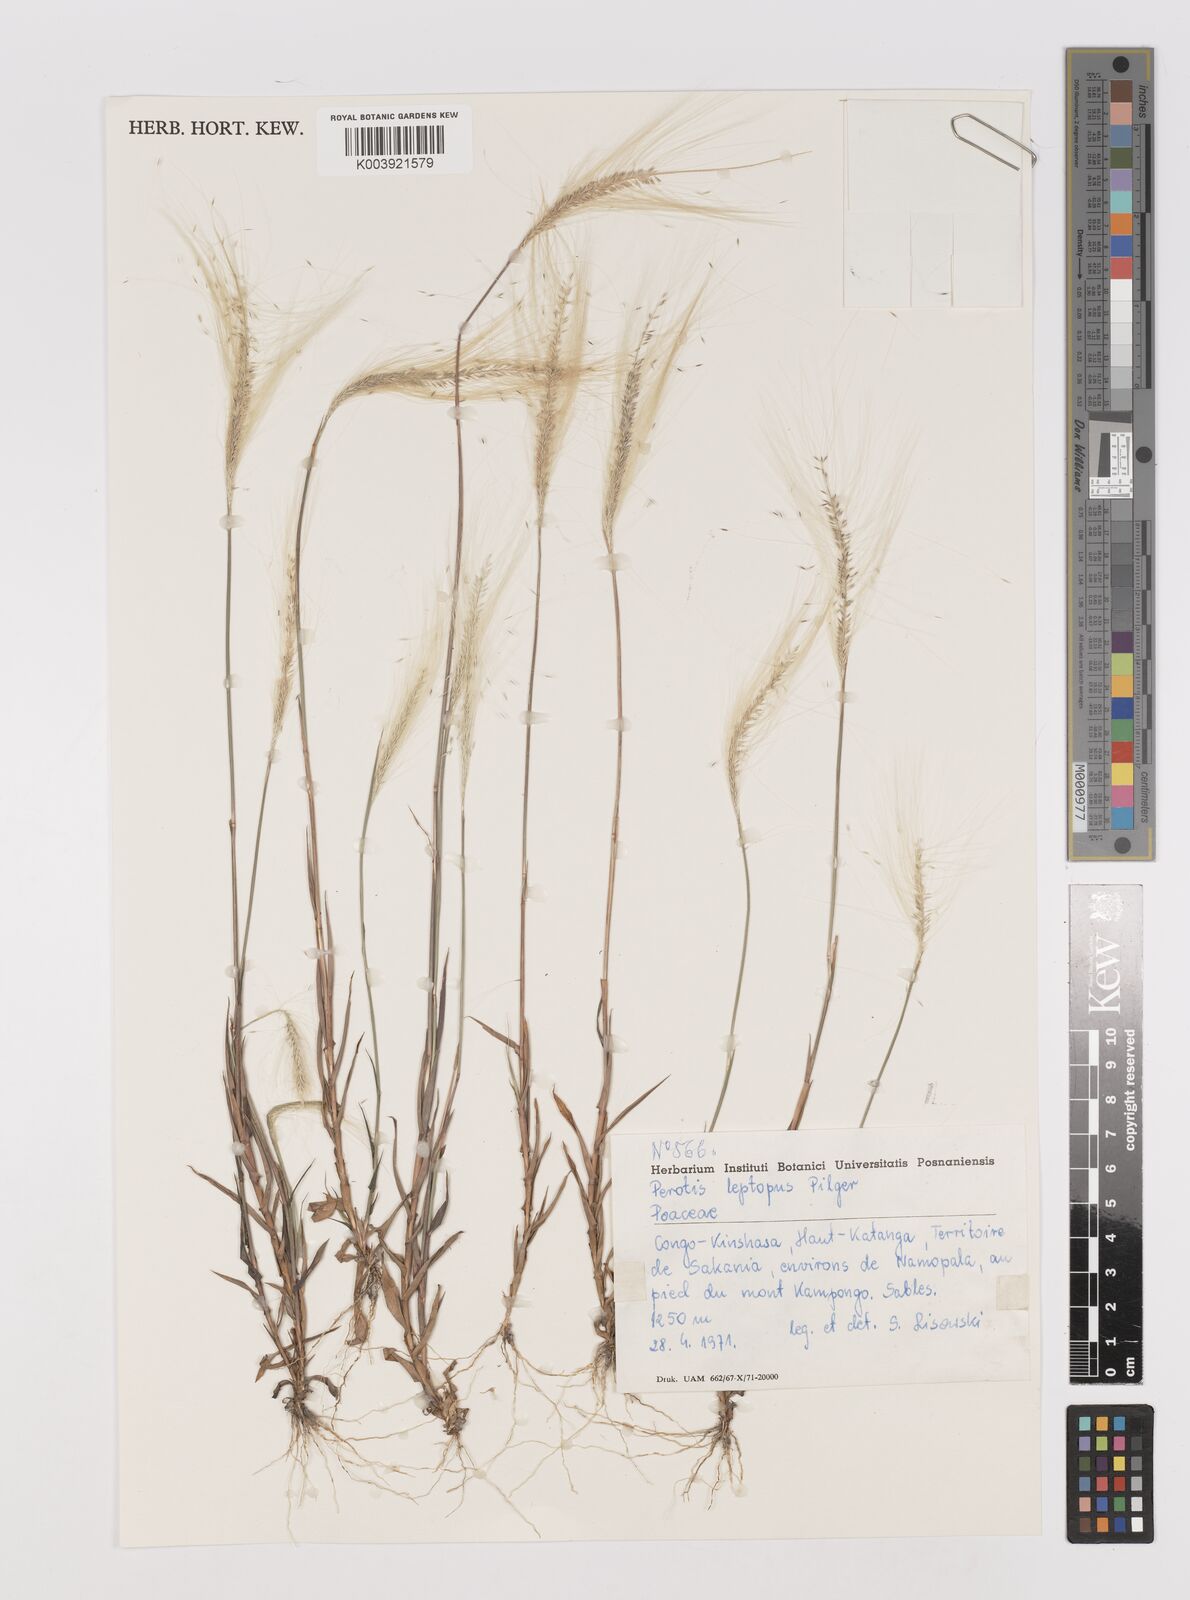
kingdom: Plantae
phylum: Tracheophyta
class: Liliopsida
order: Poales
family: Poaceae
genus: Perotis
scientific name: Perotis leptopus
